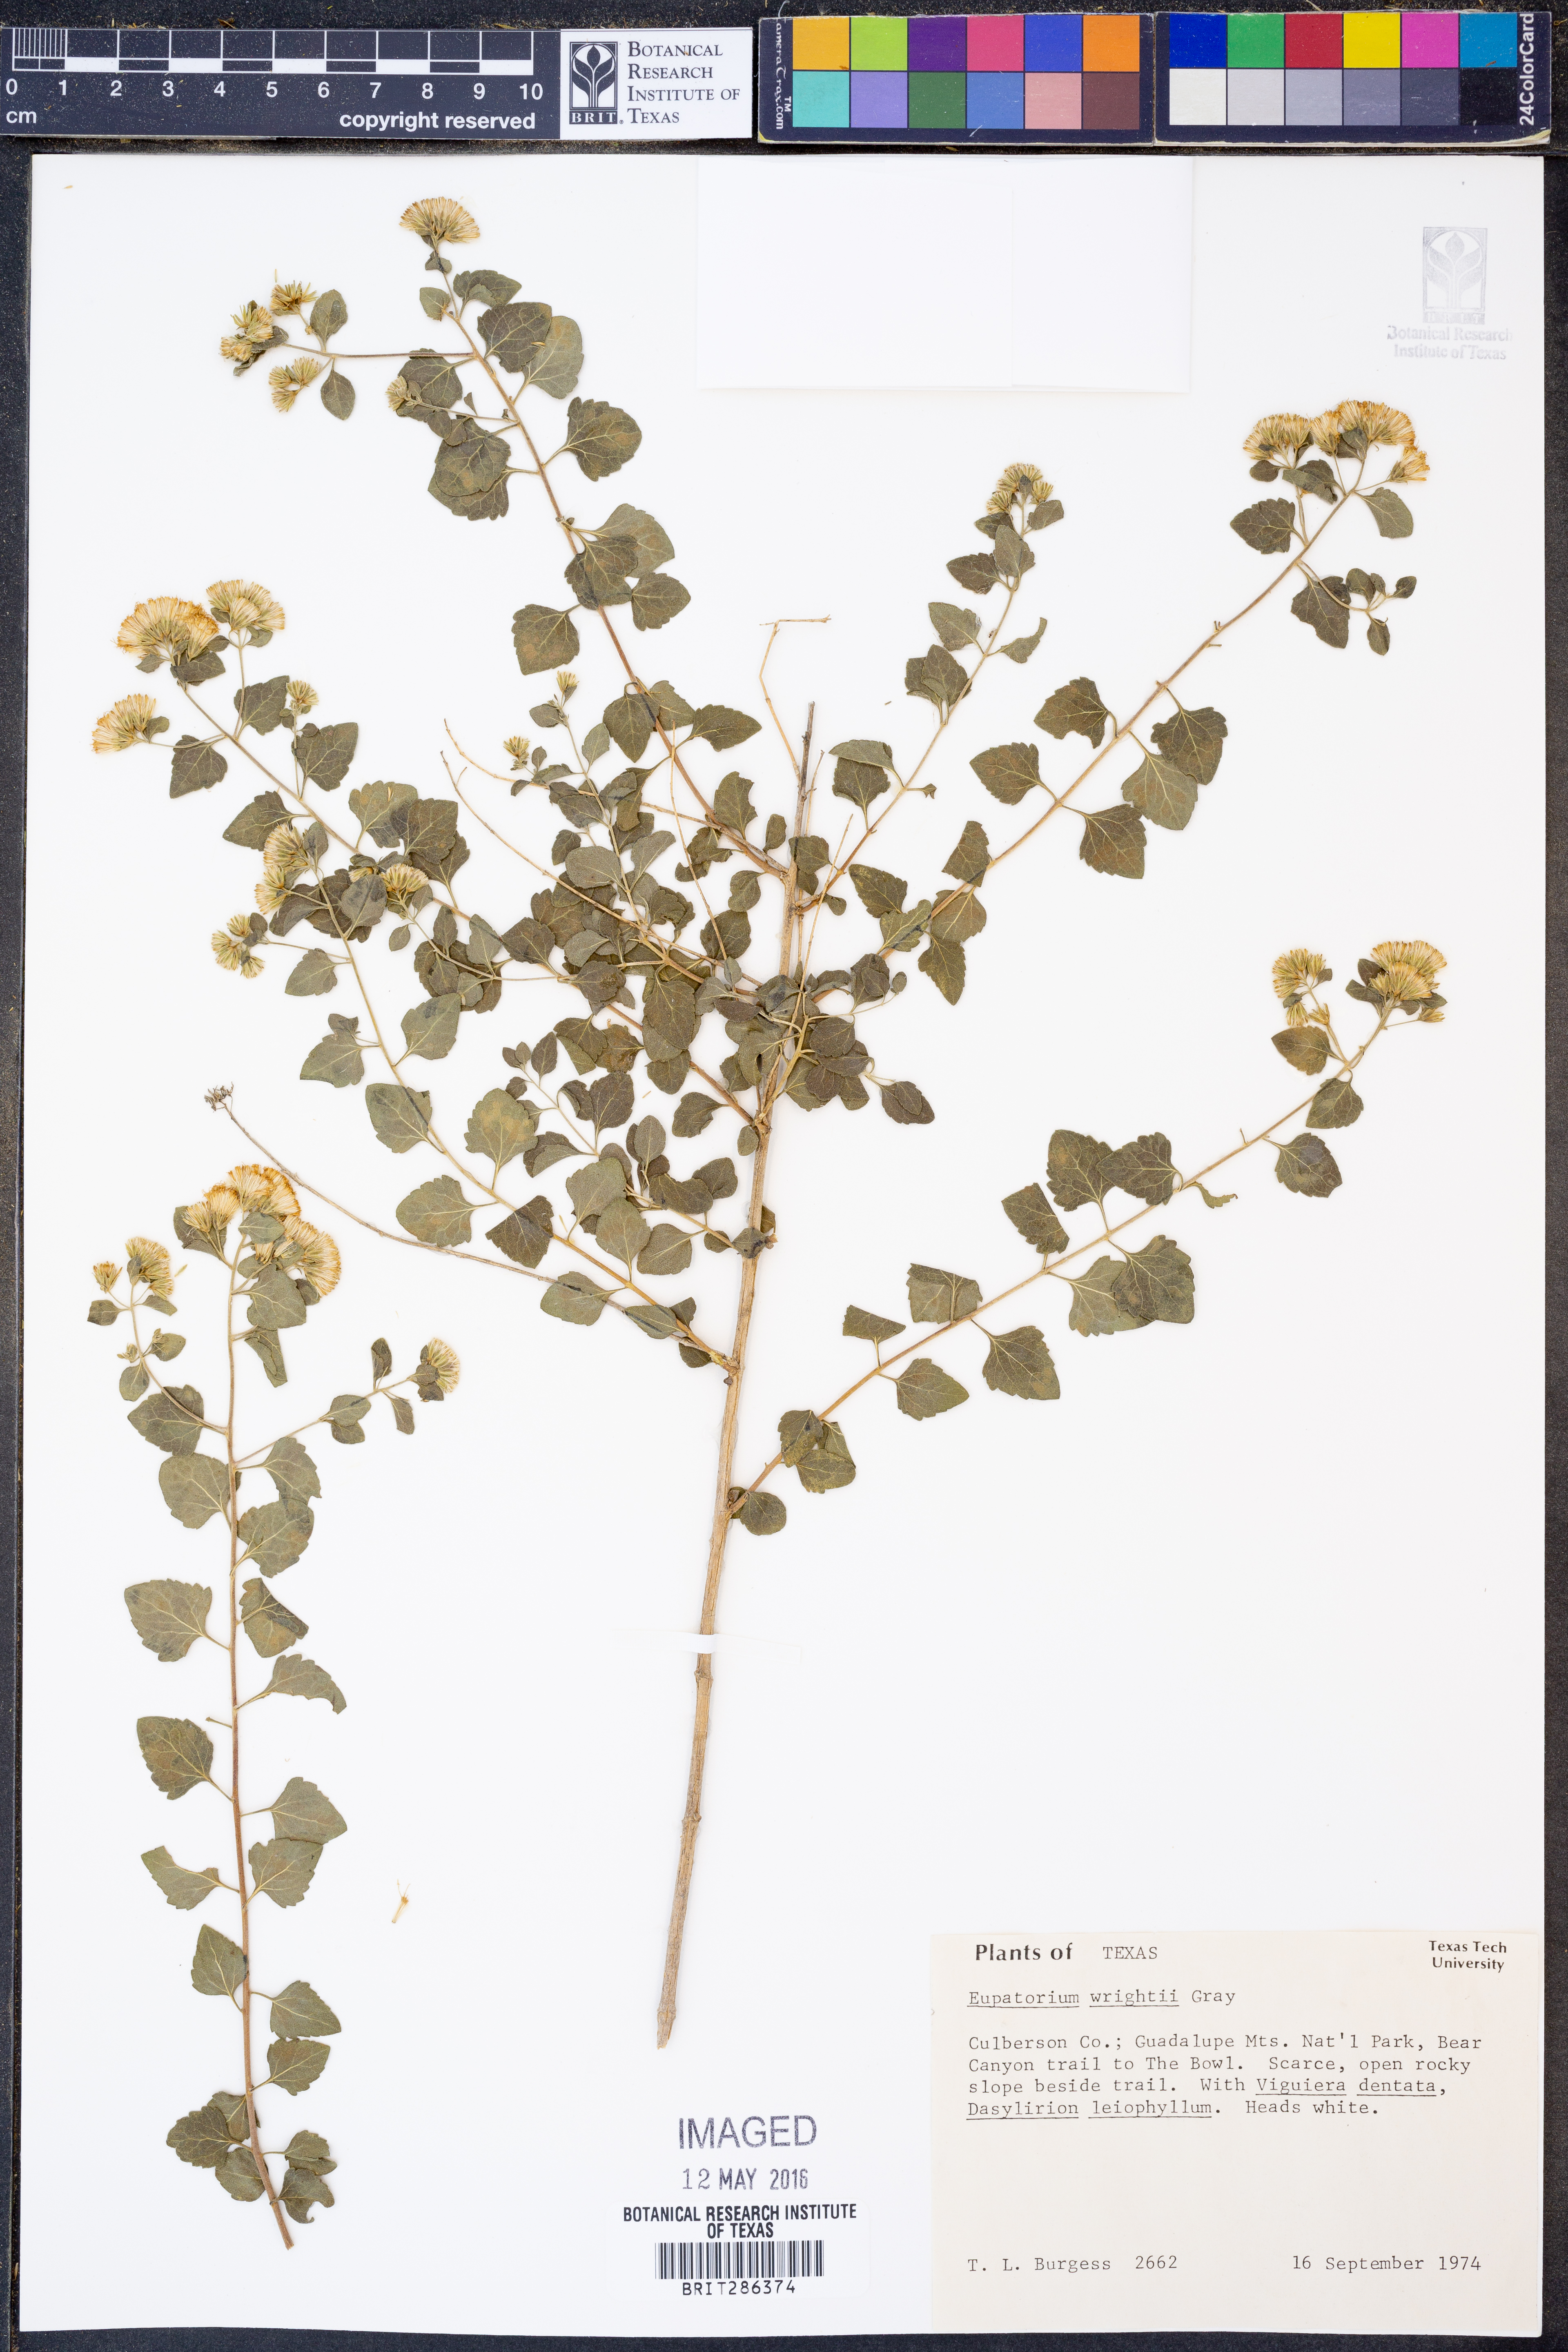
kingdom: Plantae
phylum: Tracheophyta
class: Magnoliopsida
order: Asterales
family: Asteraceae
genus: Ageratina
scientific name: Ageratina wrightii
